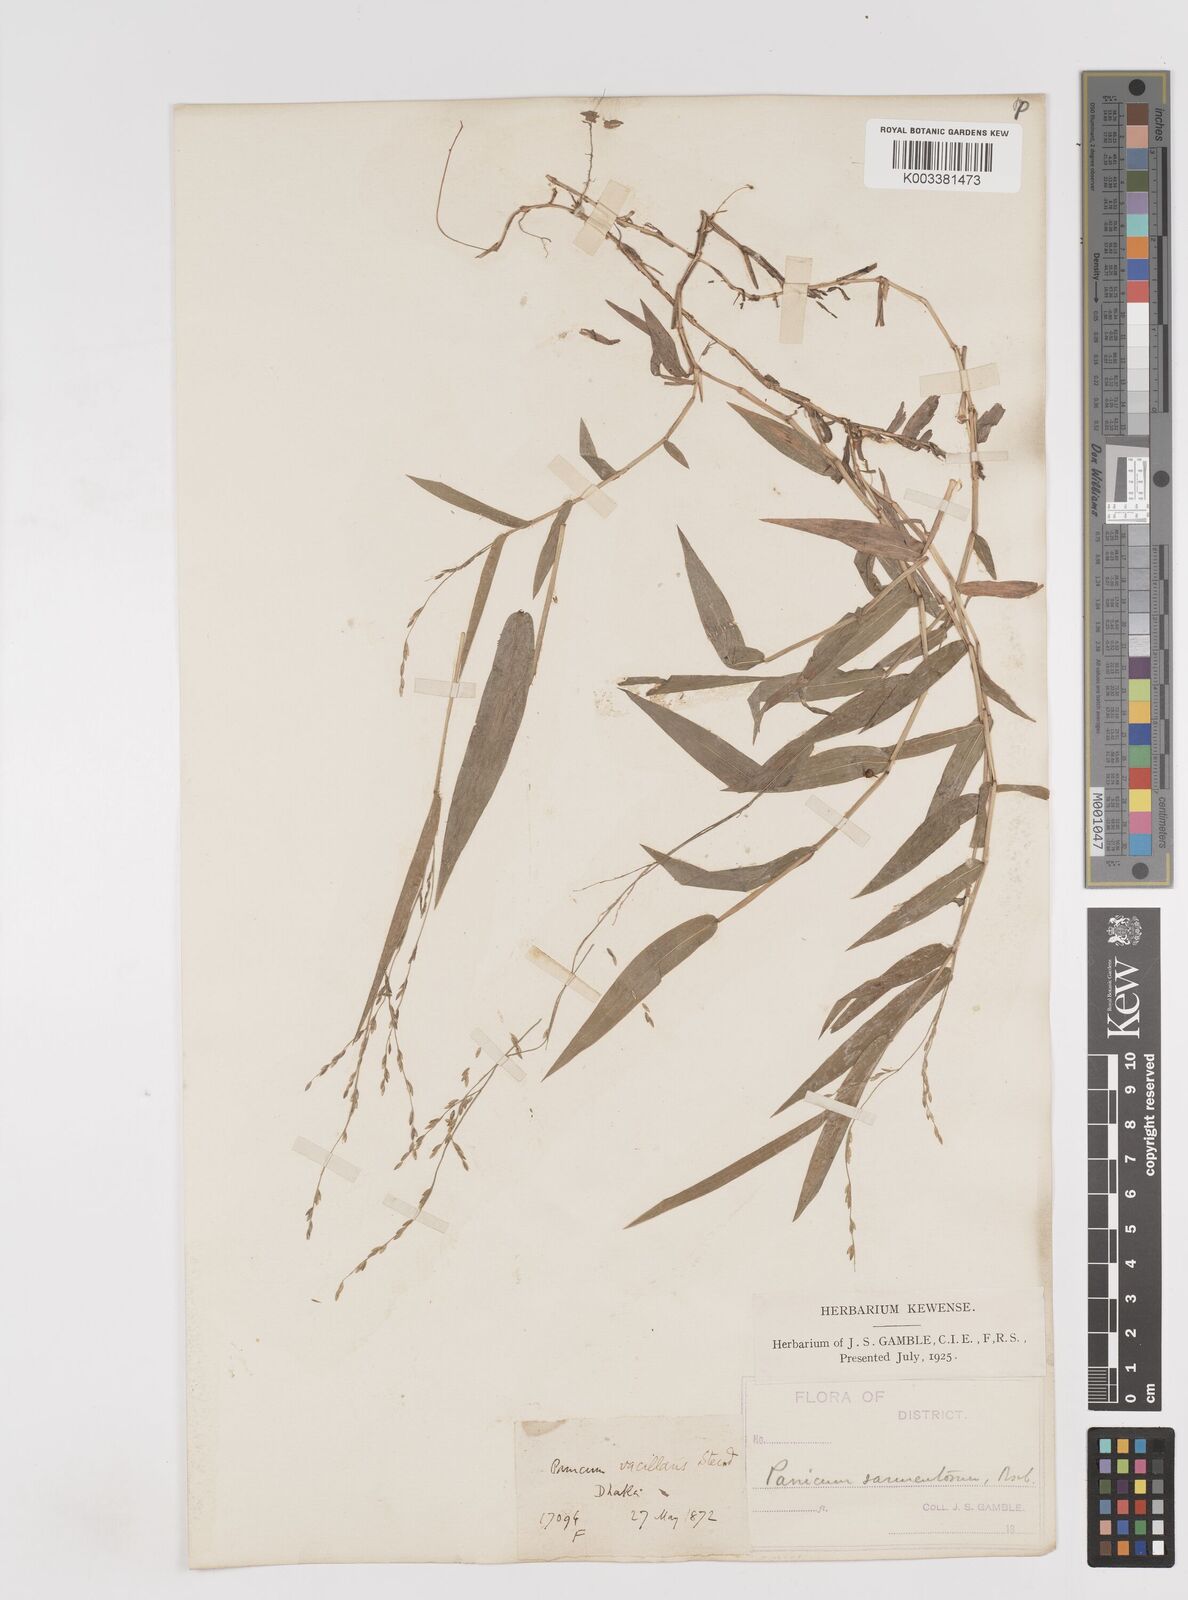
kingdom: Plantae
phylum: Tracheophyta
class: Liliopsida
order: Poales
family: Poaceae
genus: Ottochloa
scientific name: Ottochloa nodosa
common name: Slender-panic grass
